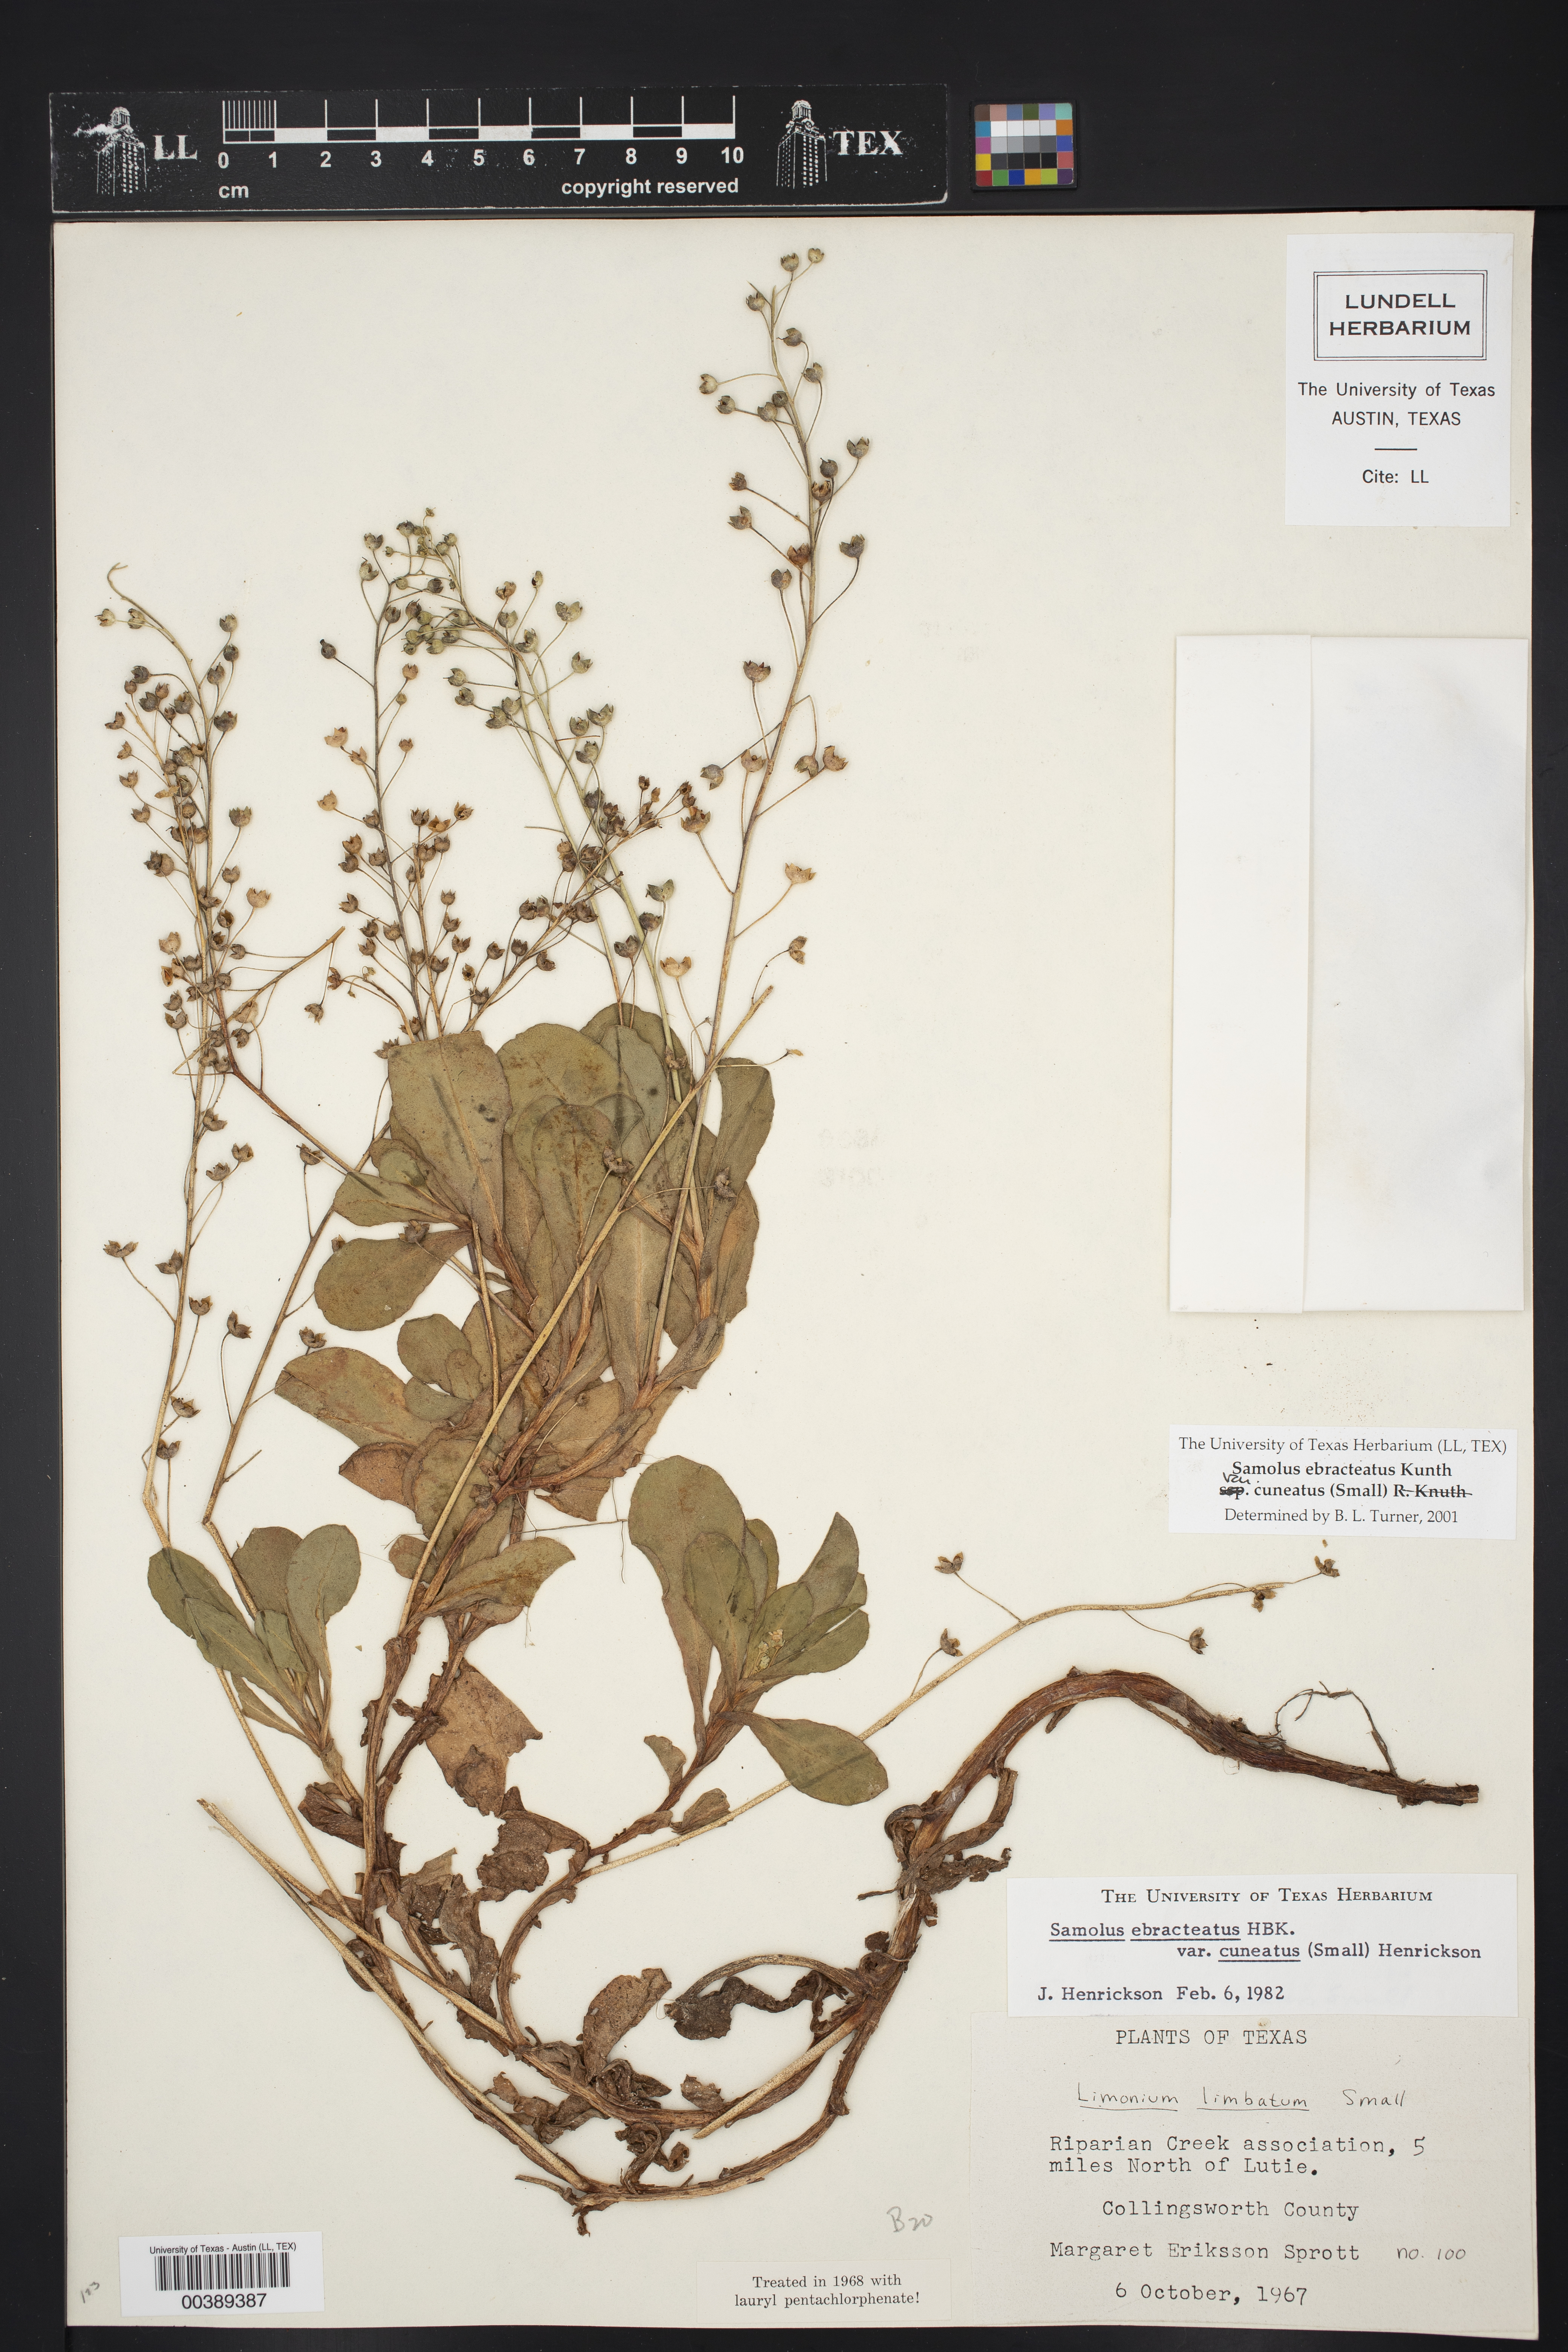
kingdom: Plantae
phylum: Tracheophyta
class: Magnoliopsida
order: Ericales
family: Primulaceae
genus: Samolus
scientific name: Samolus ebracteatus
